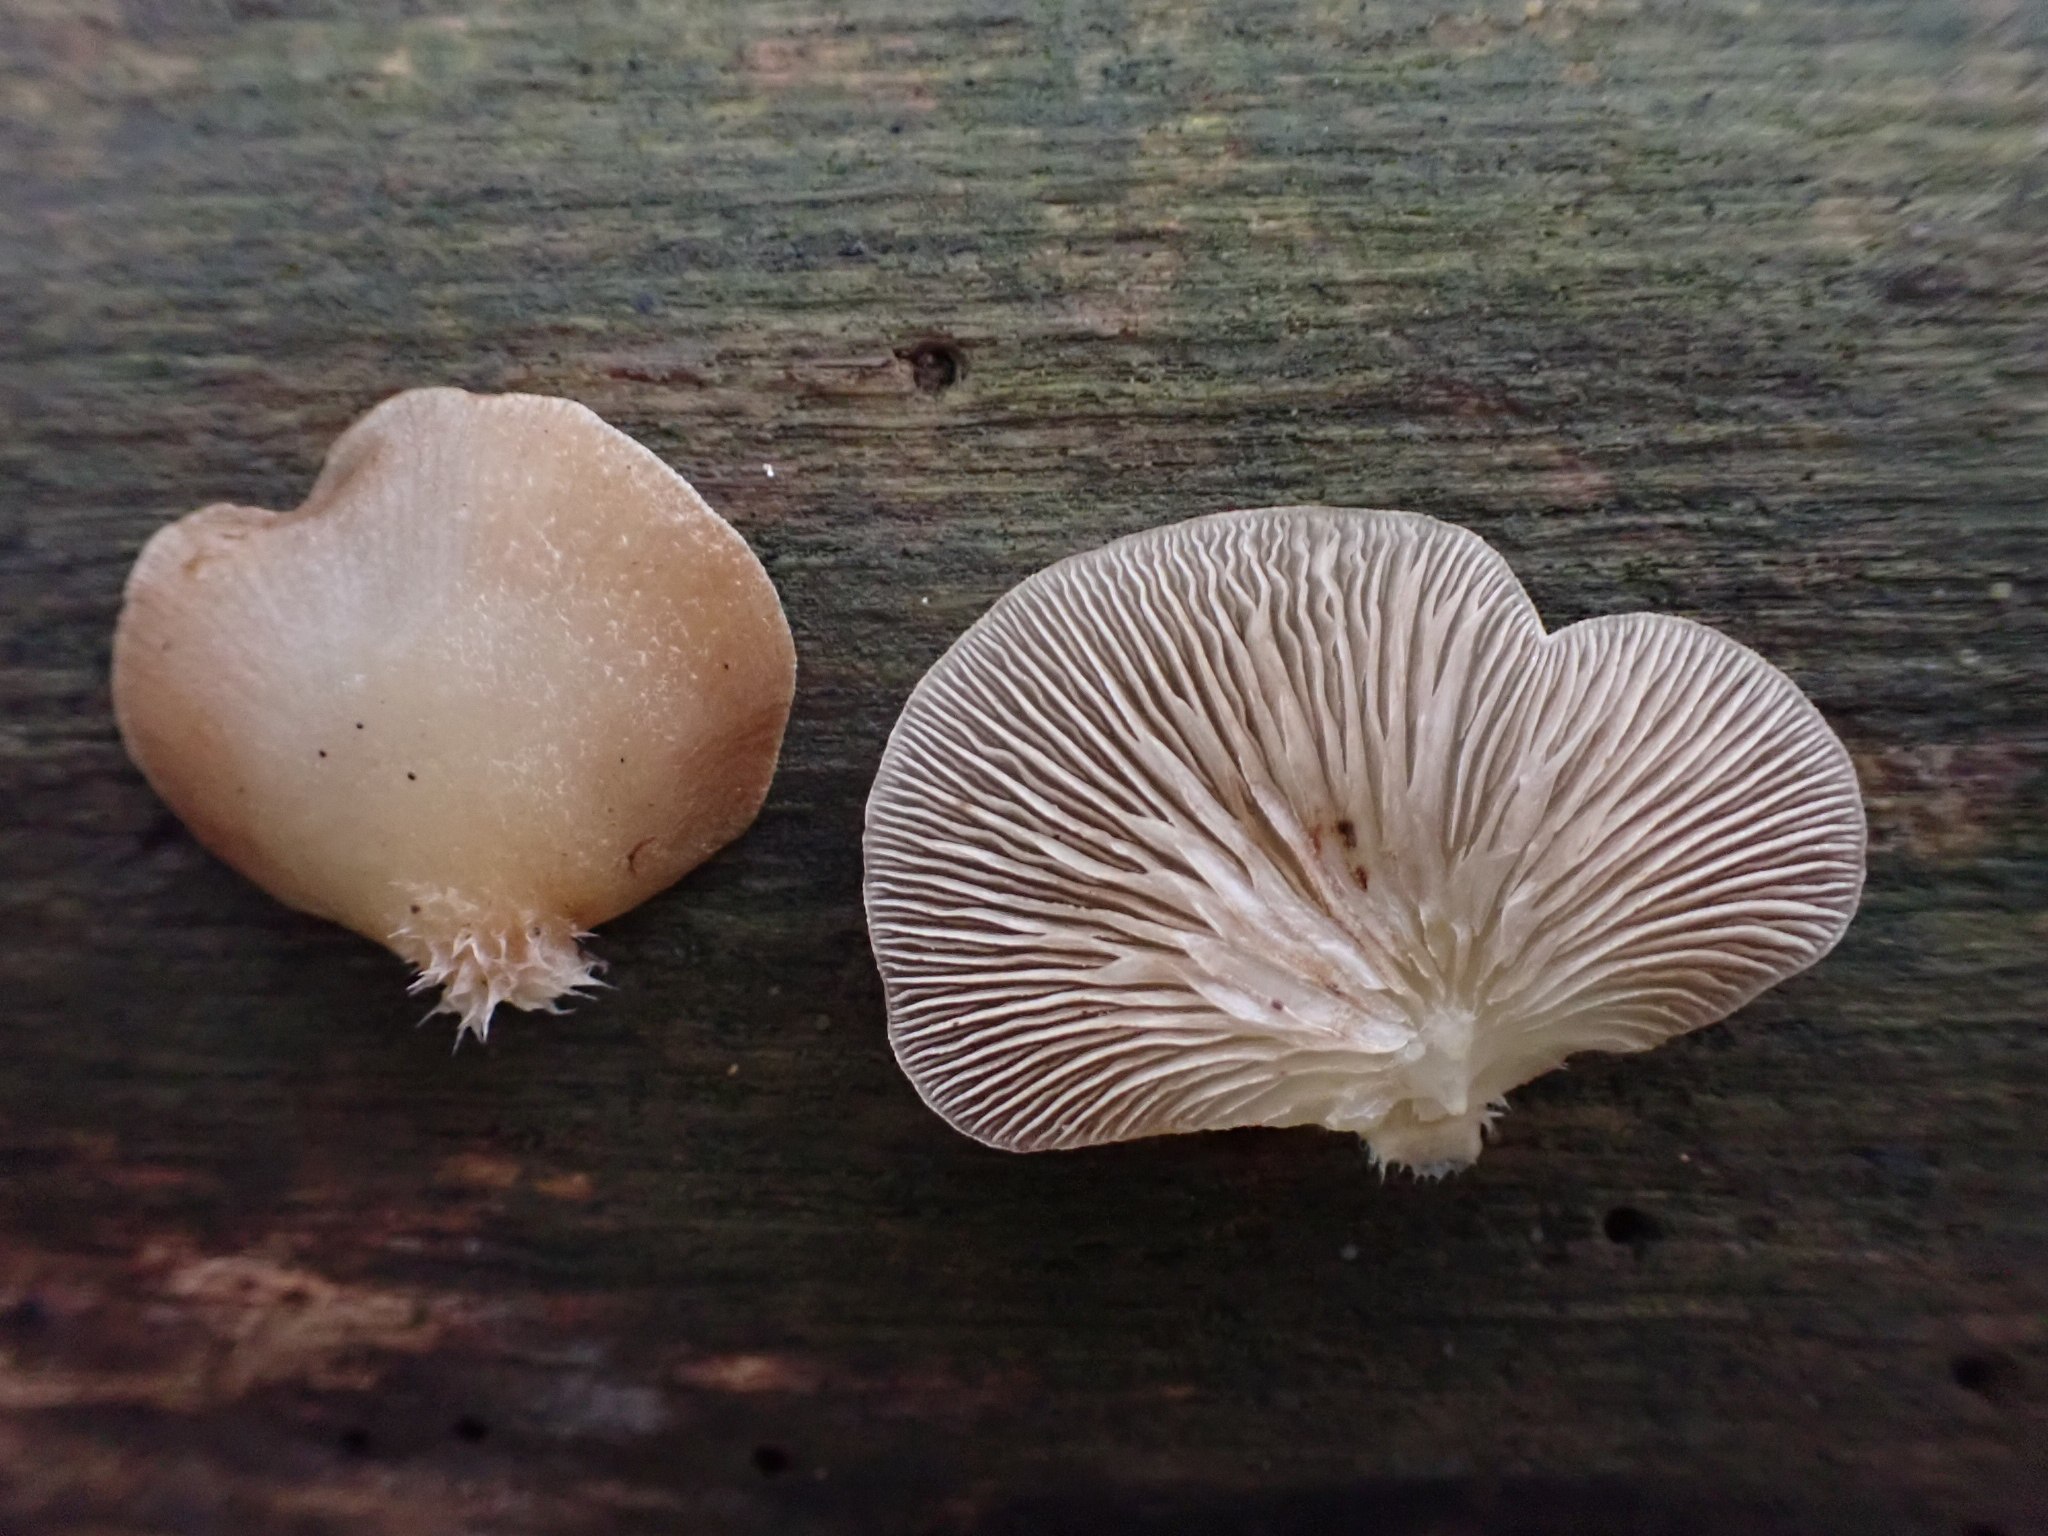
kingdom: Fungi
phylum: Basidiomycota
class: Agaricomycetes
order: Agaricales
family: Crepidotaceae
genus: Crepidotus
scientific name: Crepidotus mollis
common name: blød muslingesvamp
